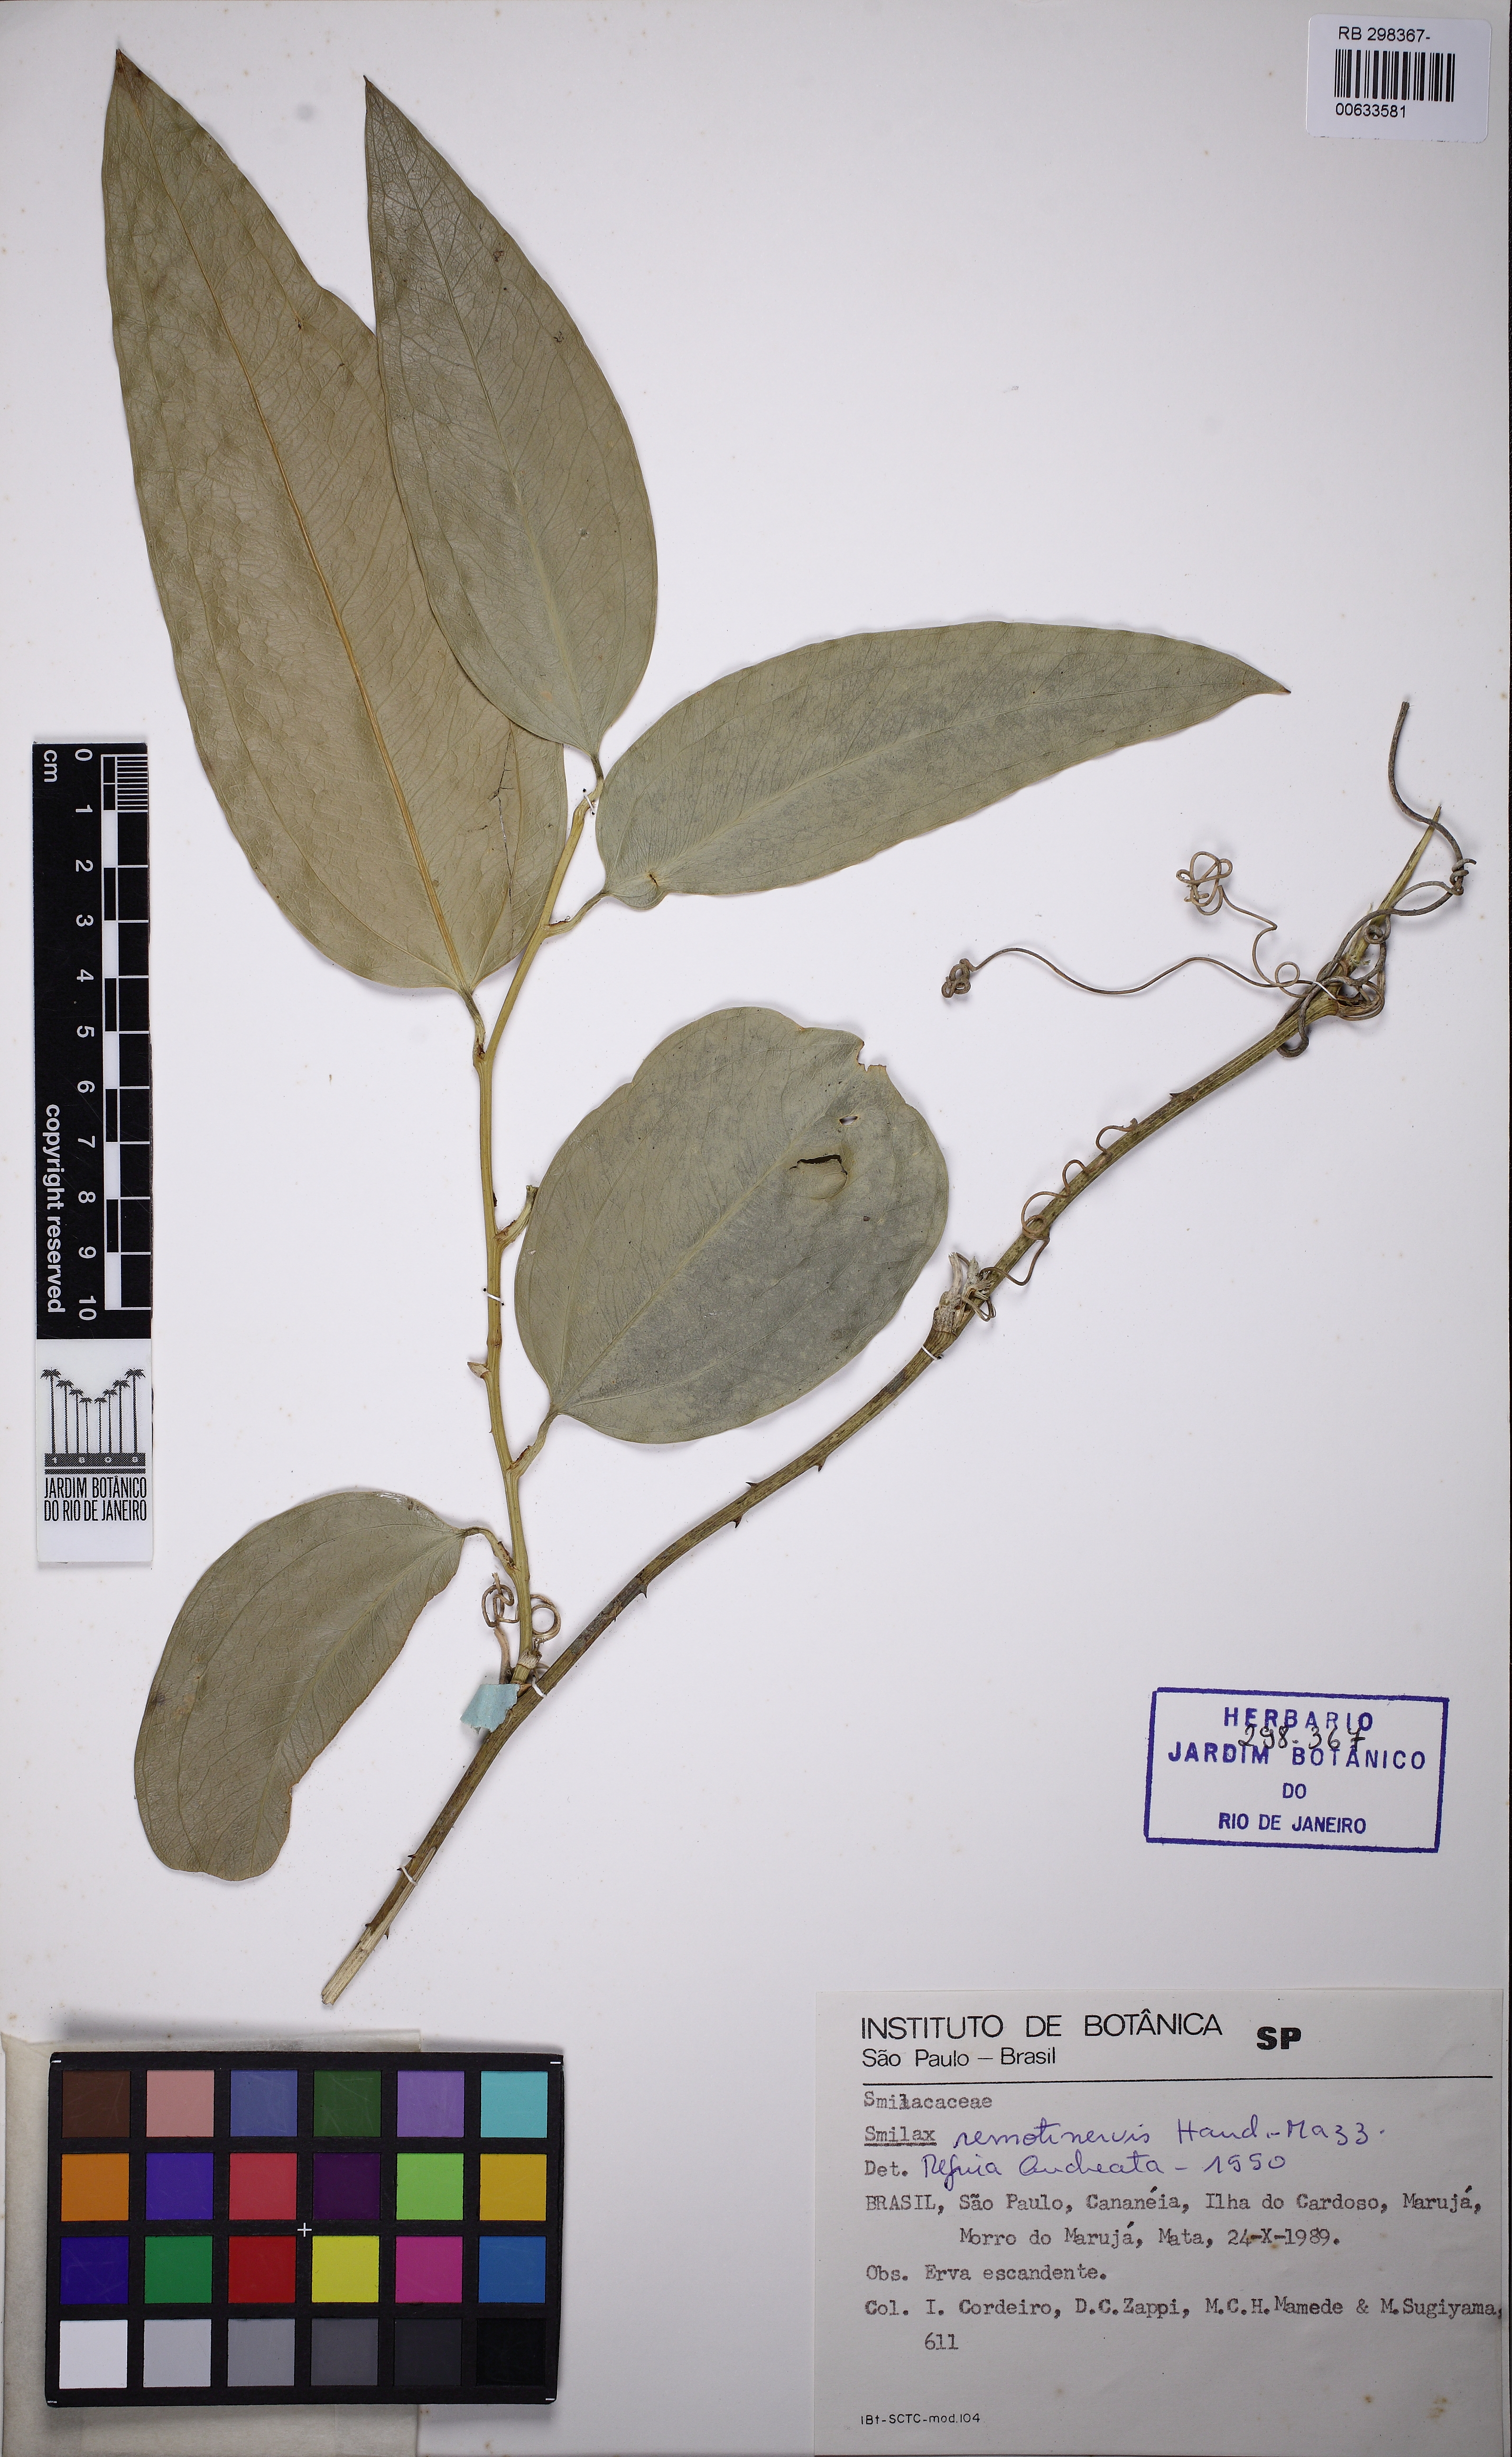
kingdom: Plantae
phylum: Tracheophyta
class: Liliopsida
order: Liliales
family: Smilacaceae
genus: Smilax
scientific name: Smilax remotinervis
